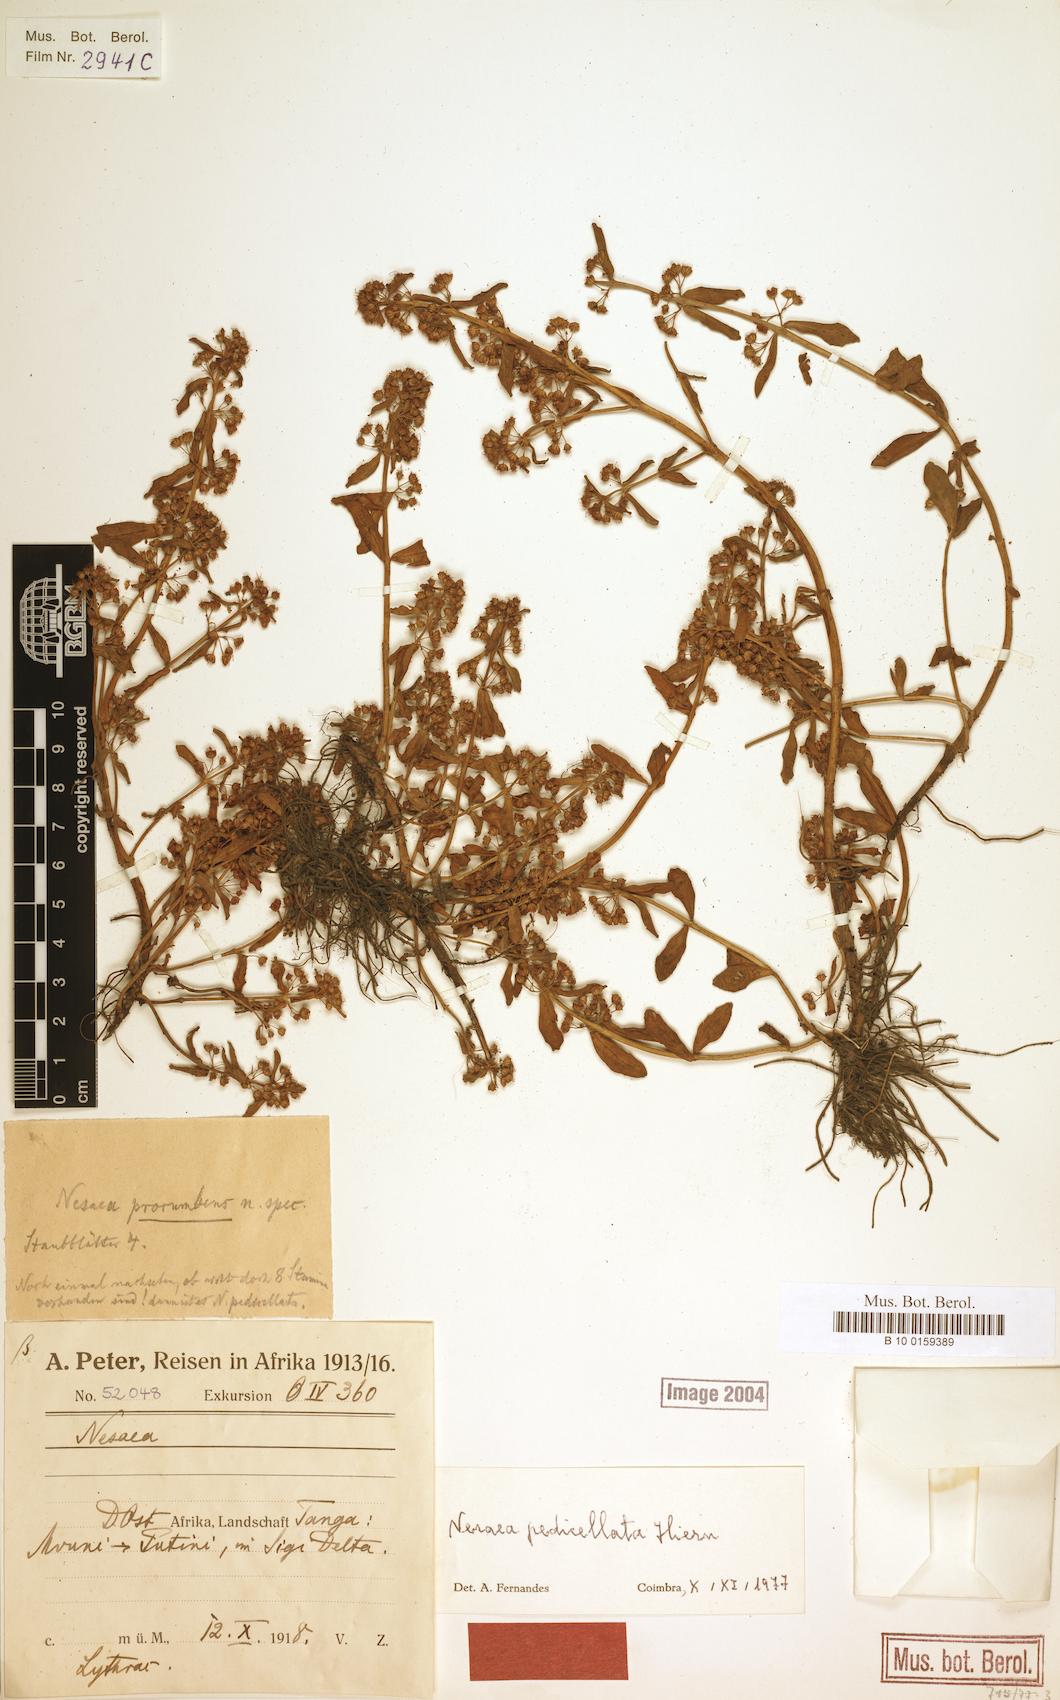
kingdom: Plantae
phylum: Tracheophyta
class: Magnoliopsida
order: Myrtales
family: Lythraceae
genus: Ammannia
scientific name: Ammannia pedicellata
